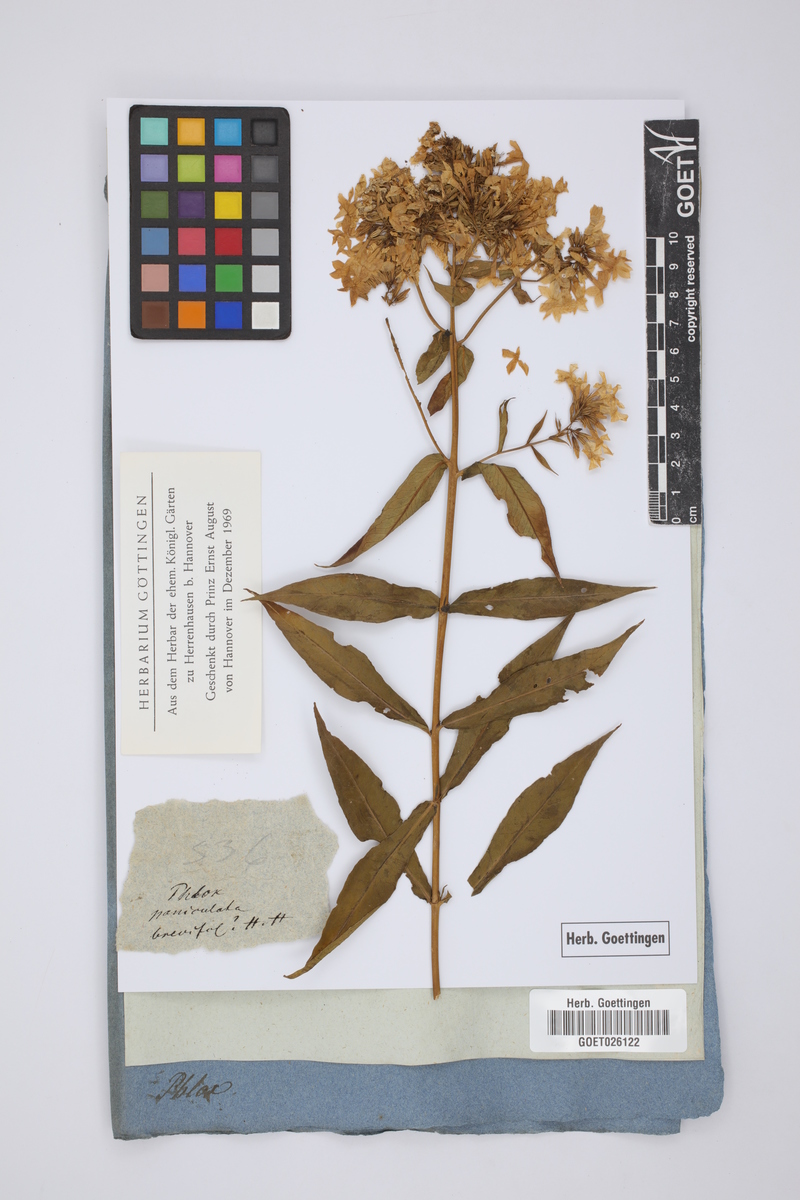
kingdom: Plantae
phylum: Tracheophyta
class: Magnoliopsida
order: Ericales
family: Polemoniaceae
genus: Phlox
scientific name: Phlox paniculata
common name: Fall phlox
